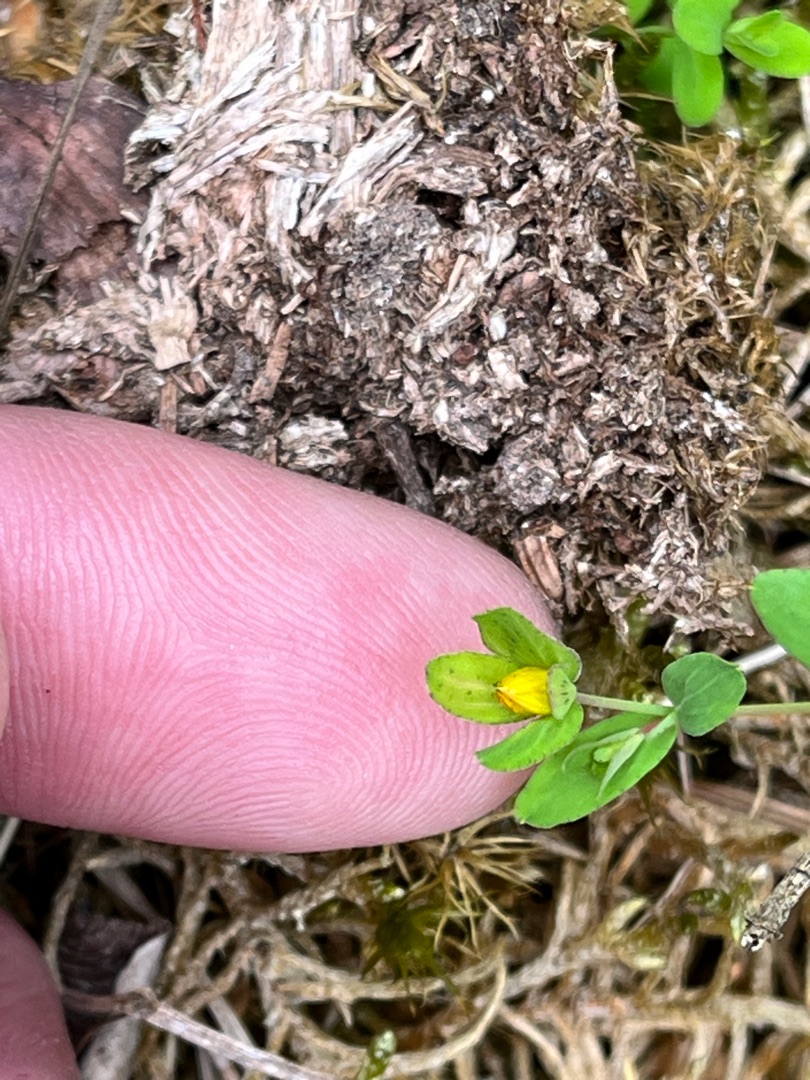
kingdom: Plantae
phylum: Tracheophyta
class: Magnoliopsida
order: Malpighiales
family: Hypericaceae
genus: Hypericum
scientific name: Hypericum humifusum
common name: Dværg-perikon
